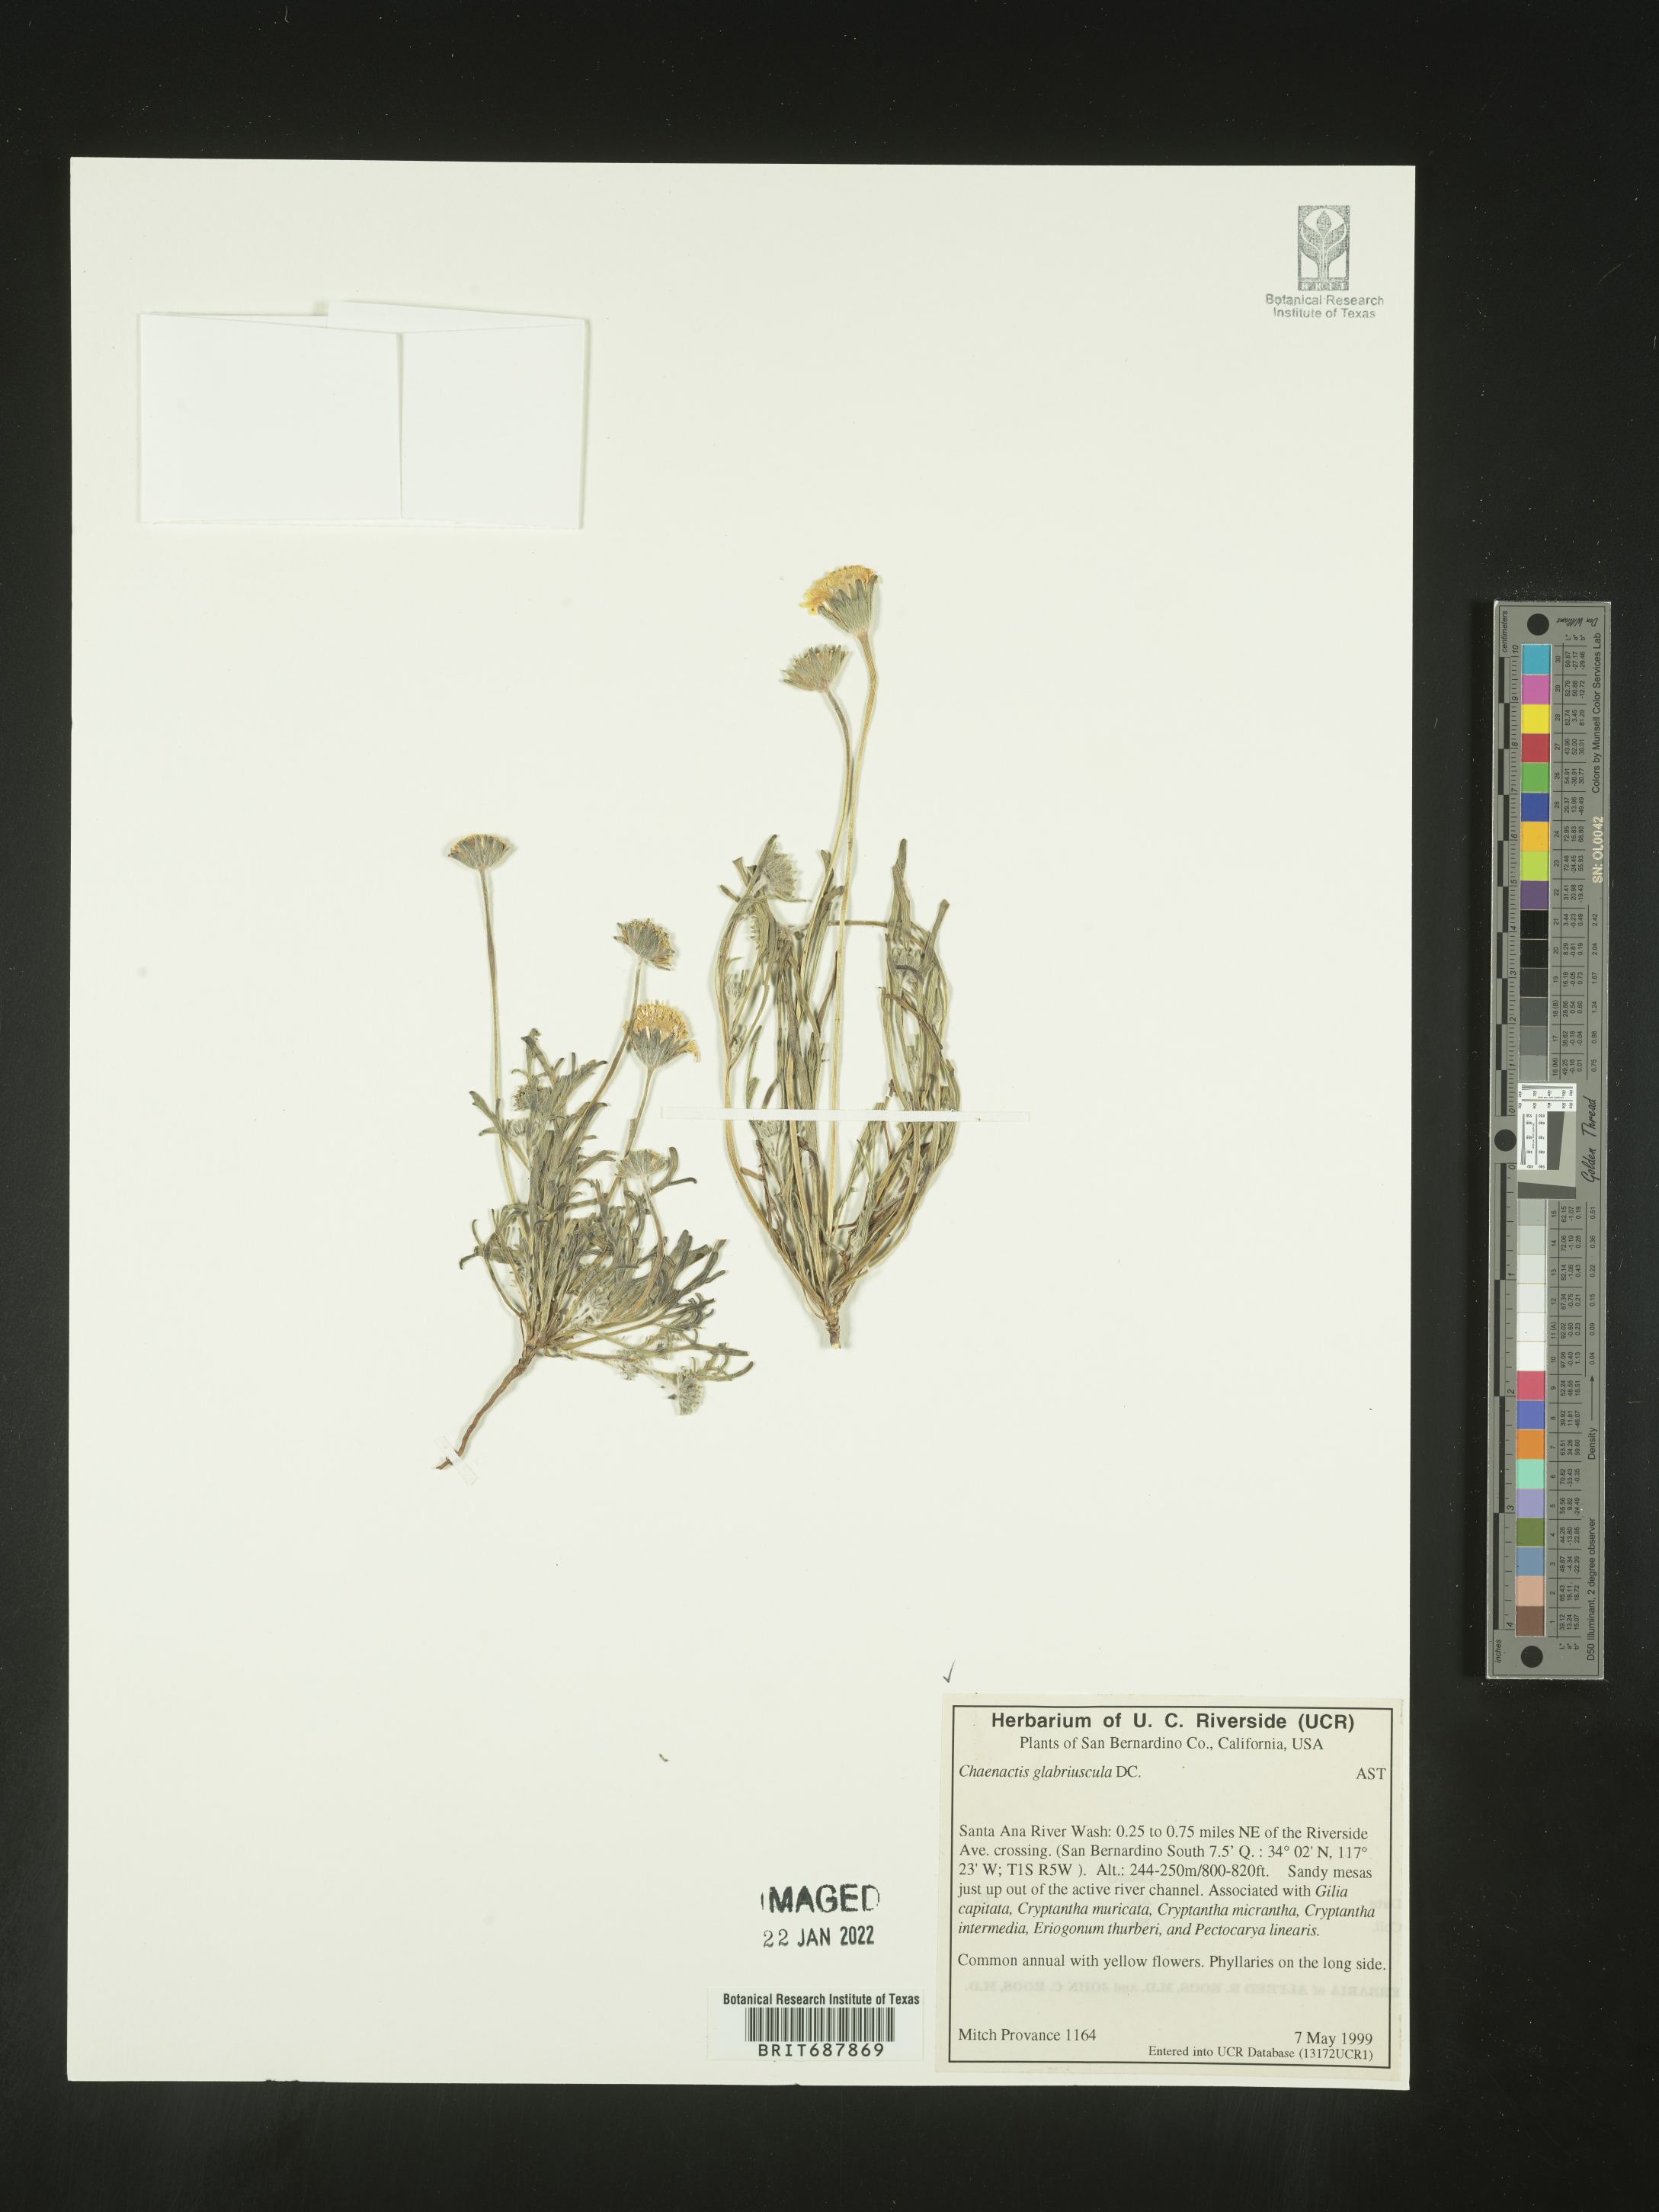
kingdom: Plantae
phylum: Tracheophyta
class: Magnoliopsida
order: Asterales
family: Asteraceae
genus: Chaenactis
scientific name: Chaenactis glabriuscula
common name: Yellow pincushion
